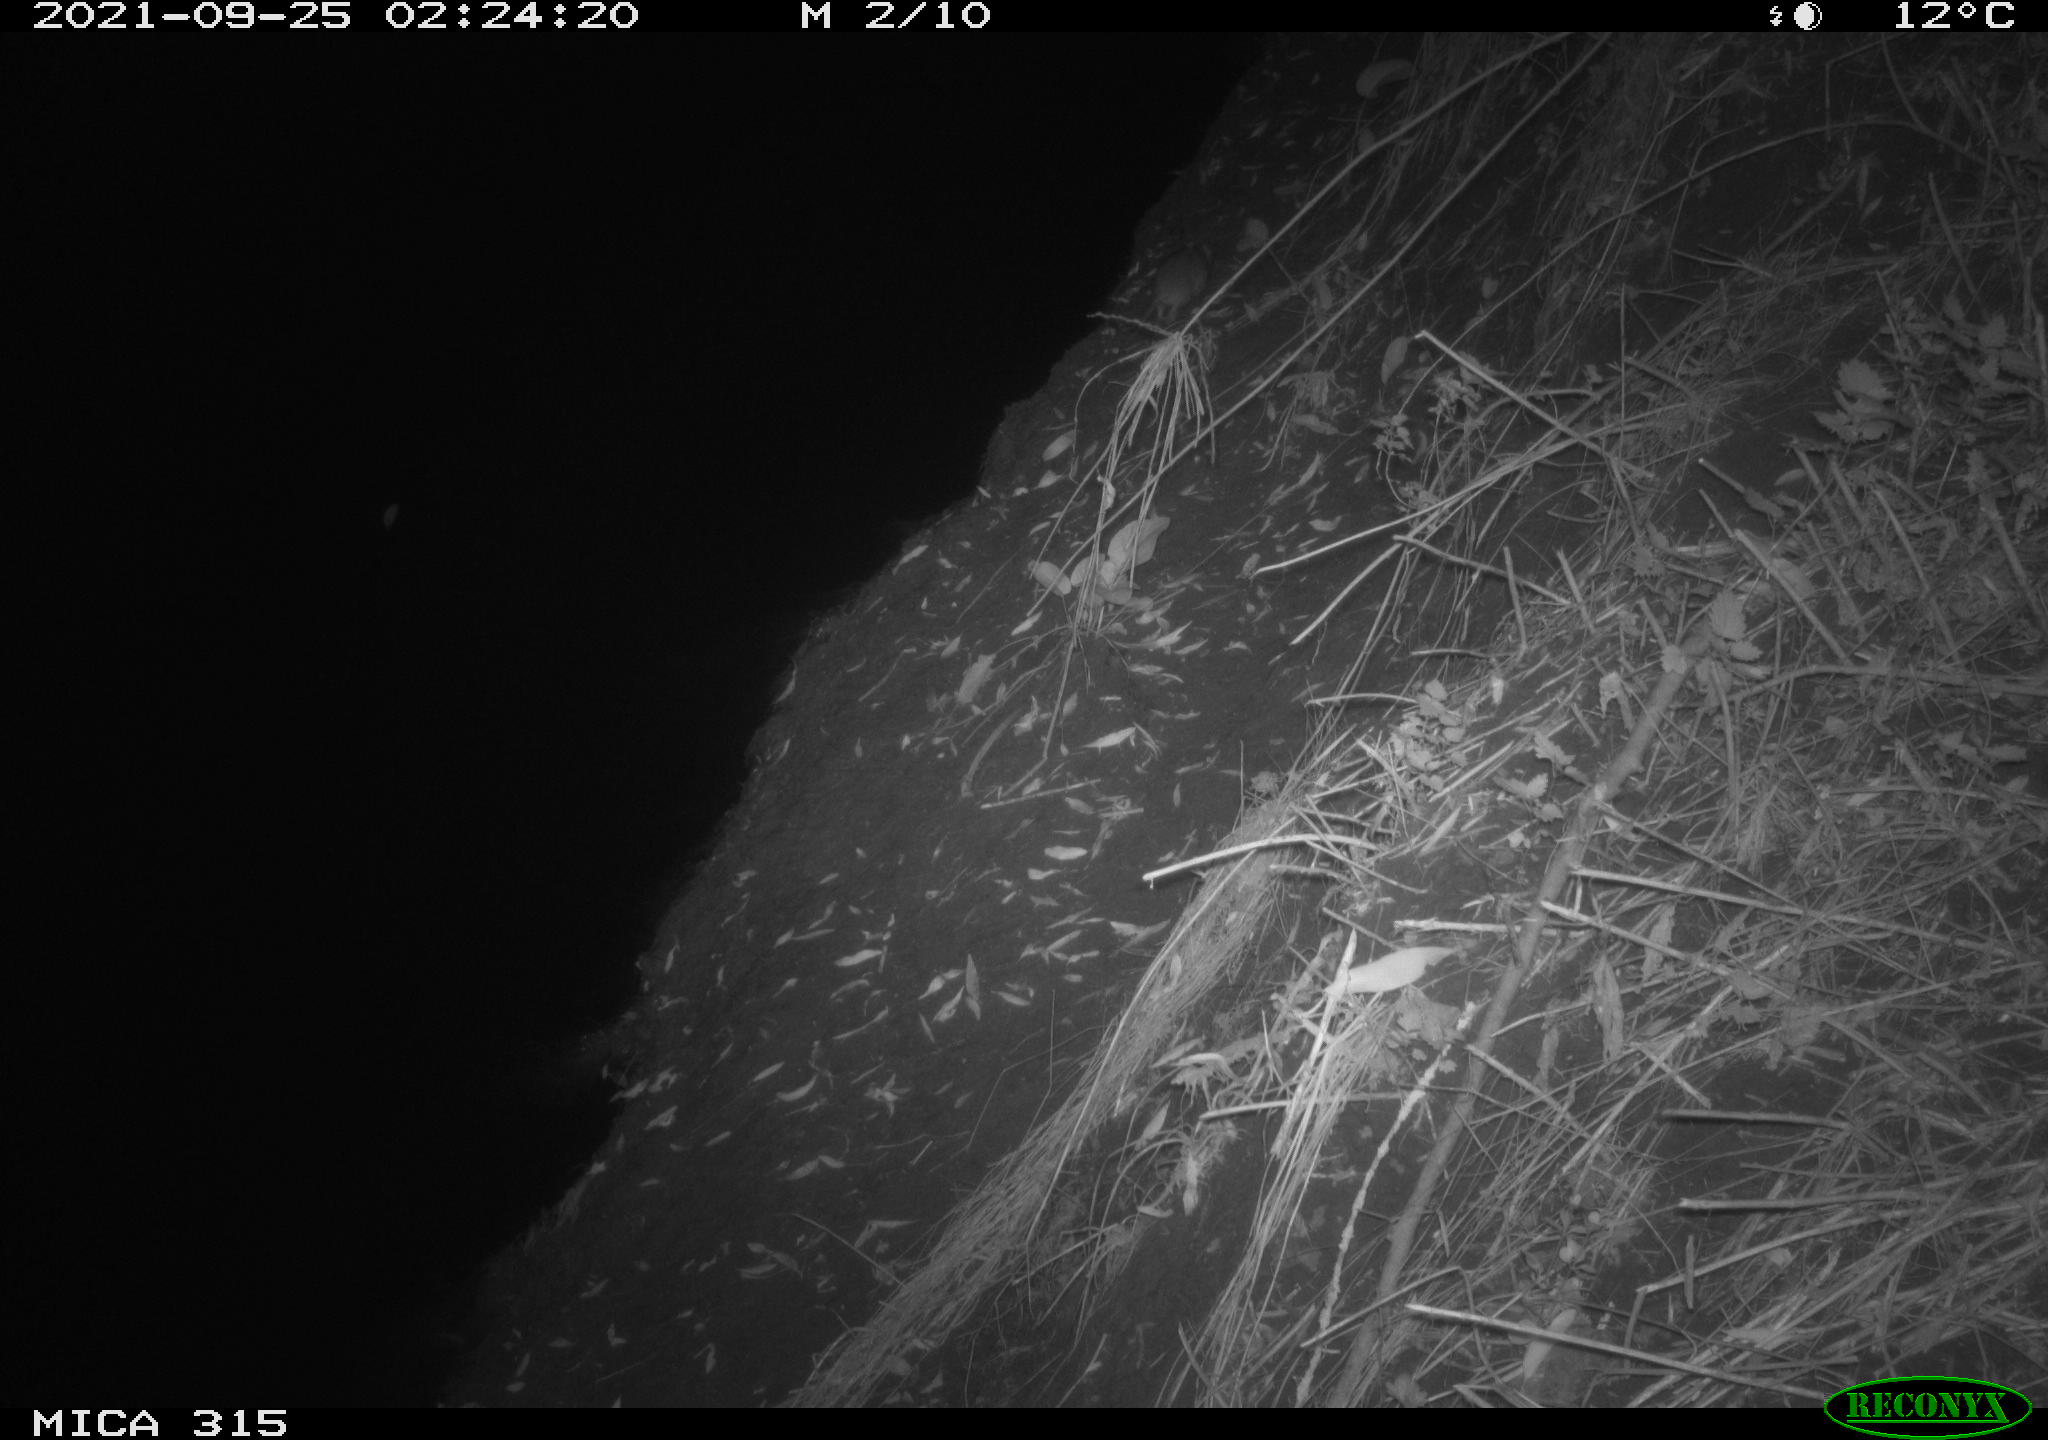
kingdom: Animalia
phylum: Chordata
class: Mammalia
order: Rodentia
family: Muridae
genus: Rattus
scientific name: Rattus norvegicus
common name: Brown rat
